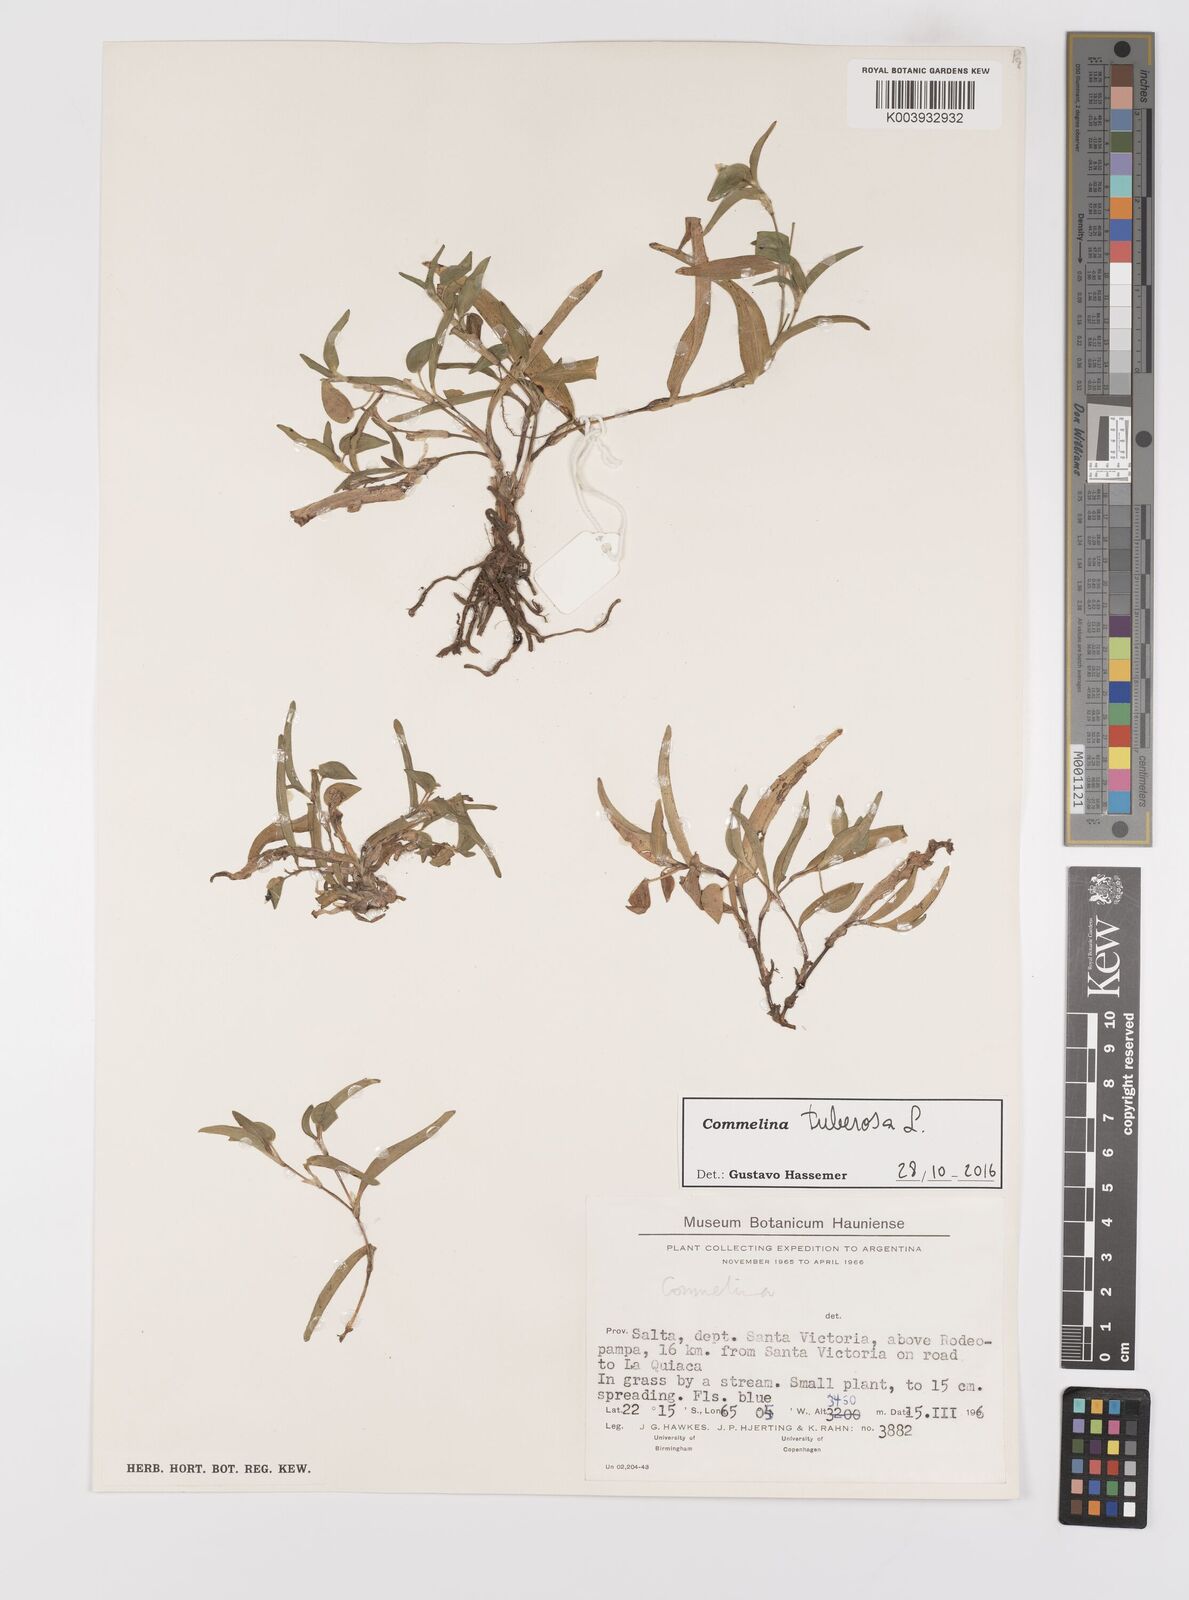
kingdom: Plantae
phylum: Tracheophyta
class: Liliopsida
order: Commelinales
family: Commelinaceae
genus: Commelina
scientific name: Commelina tuberosa
